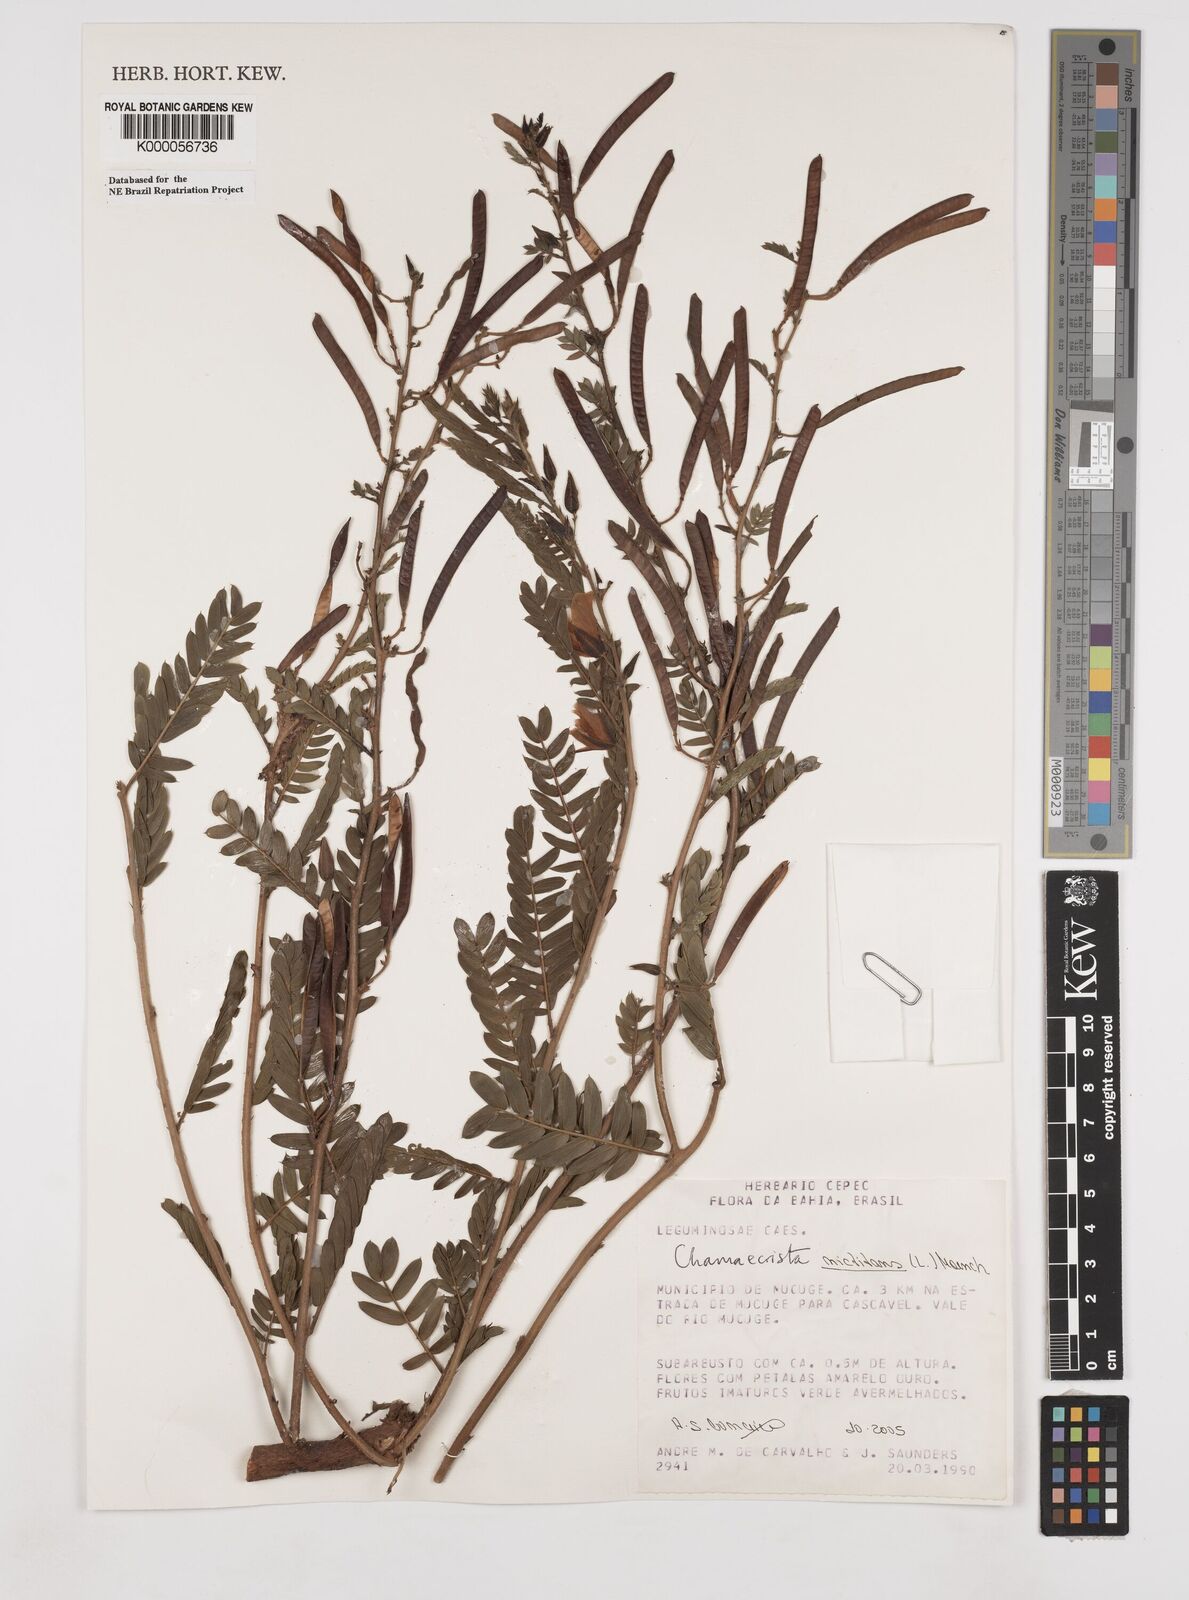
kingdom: Plantae
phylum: Tracheophyta
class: Magnoliopsida
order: Fabales
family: Fabaceae
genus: Chamaecrista
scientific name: Chamaecrista
